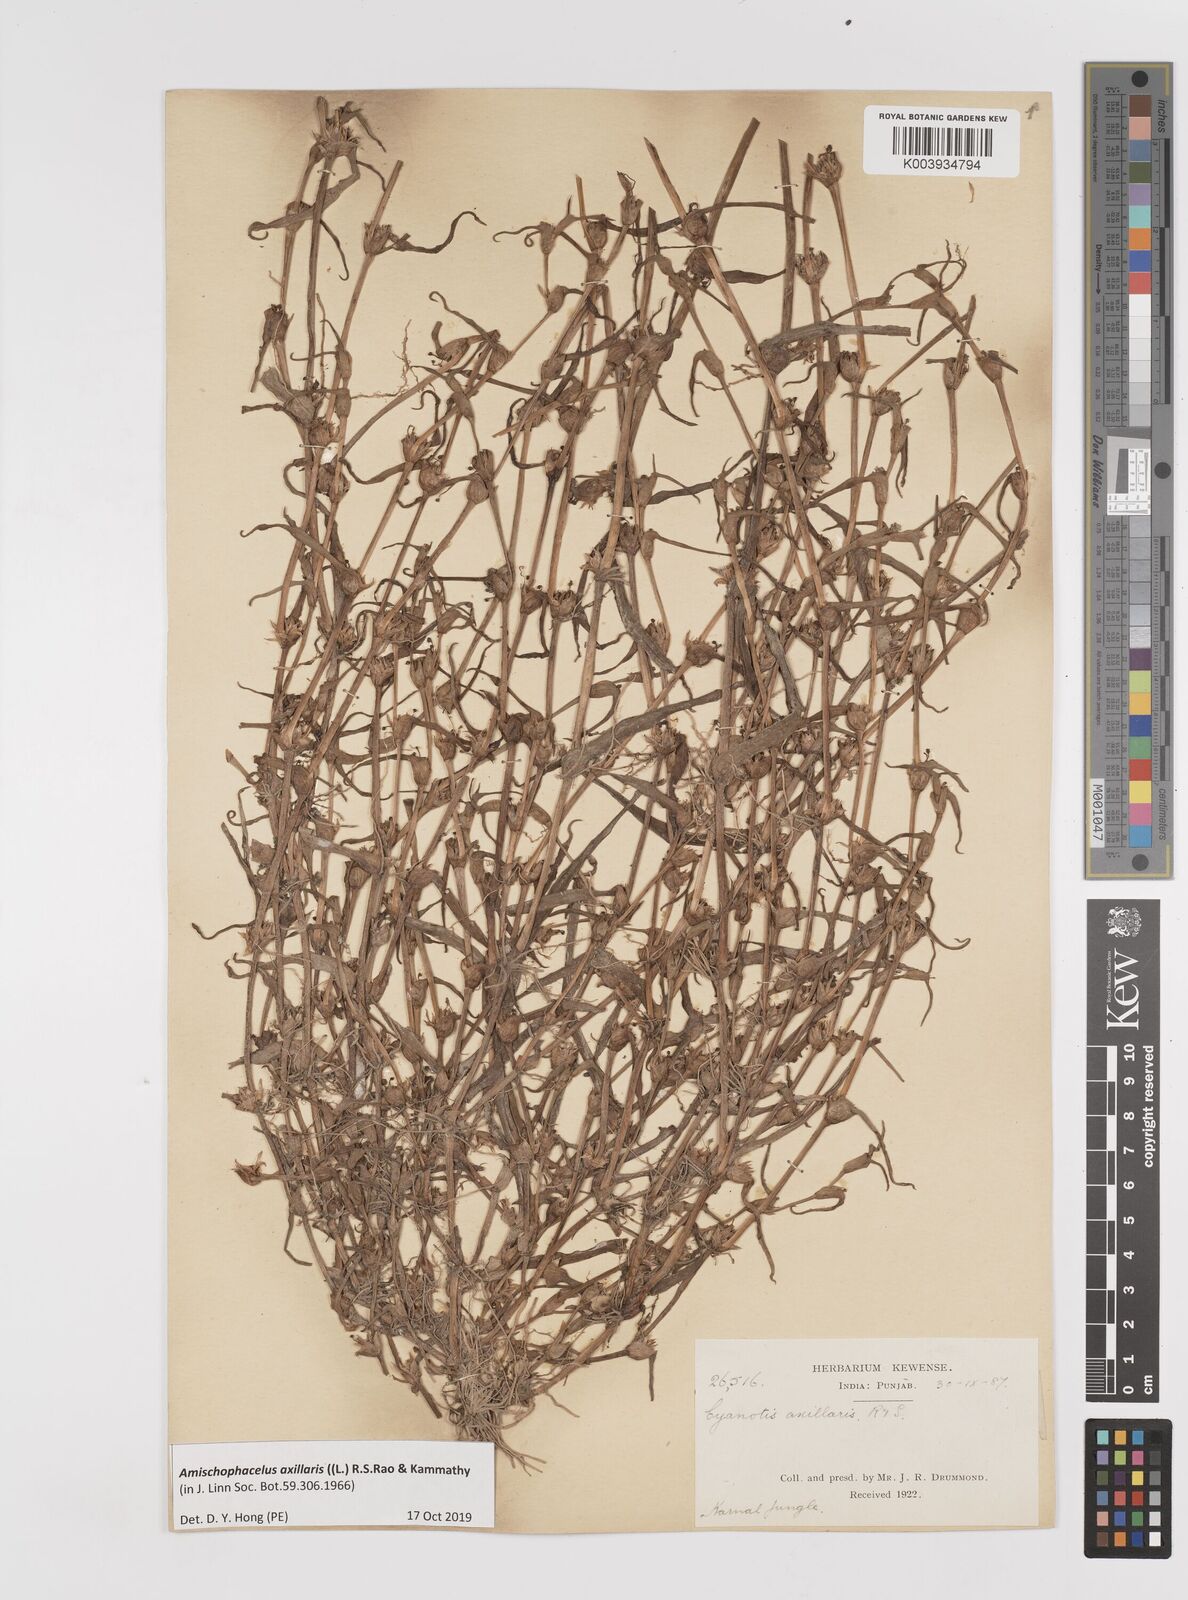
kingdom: Plantae
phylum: Tracheophyta
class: Liliopsida
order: Commelinales
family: Commelinaceae
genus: Cyanotis
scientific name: Cyanotis axillaris
